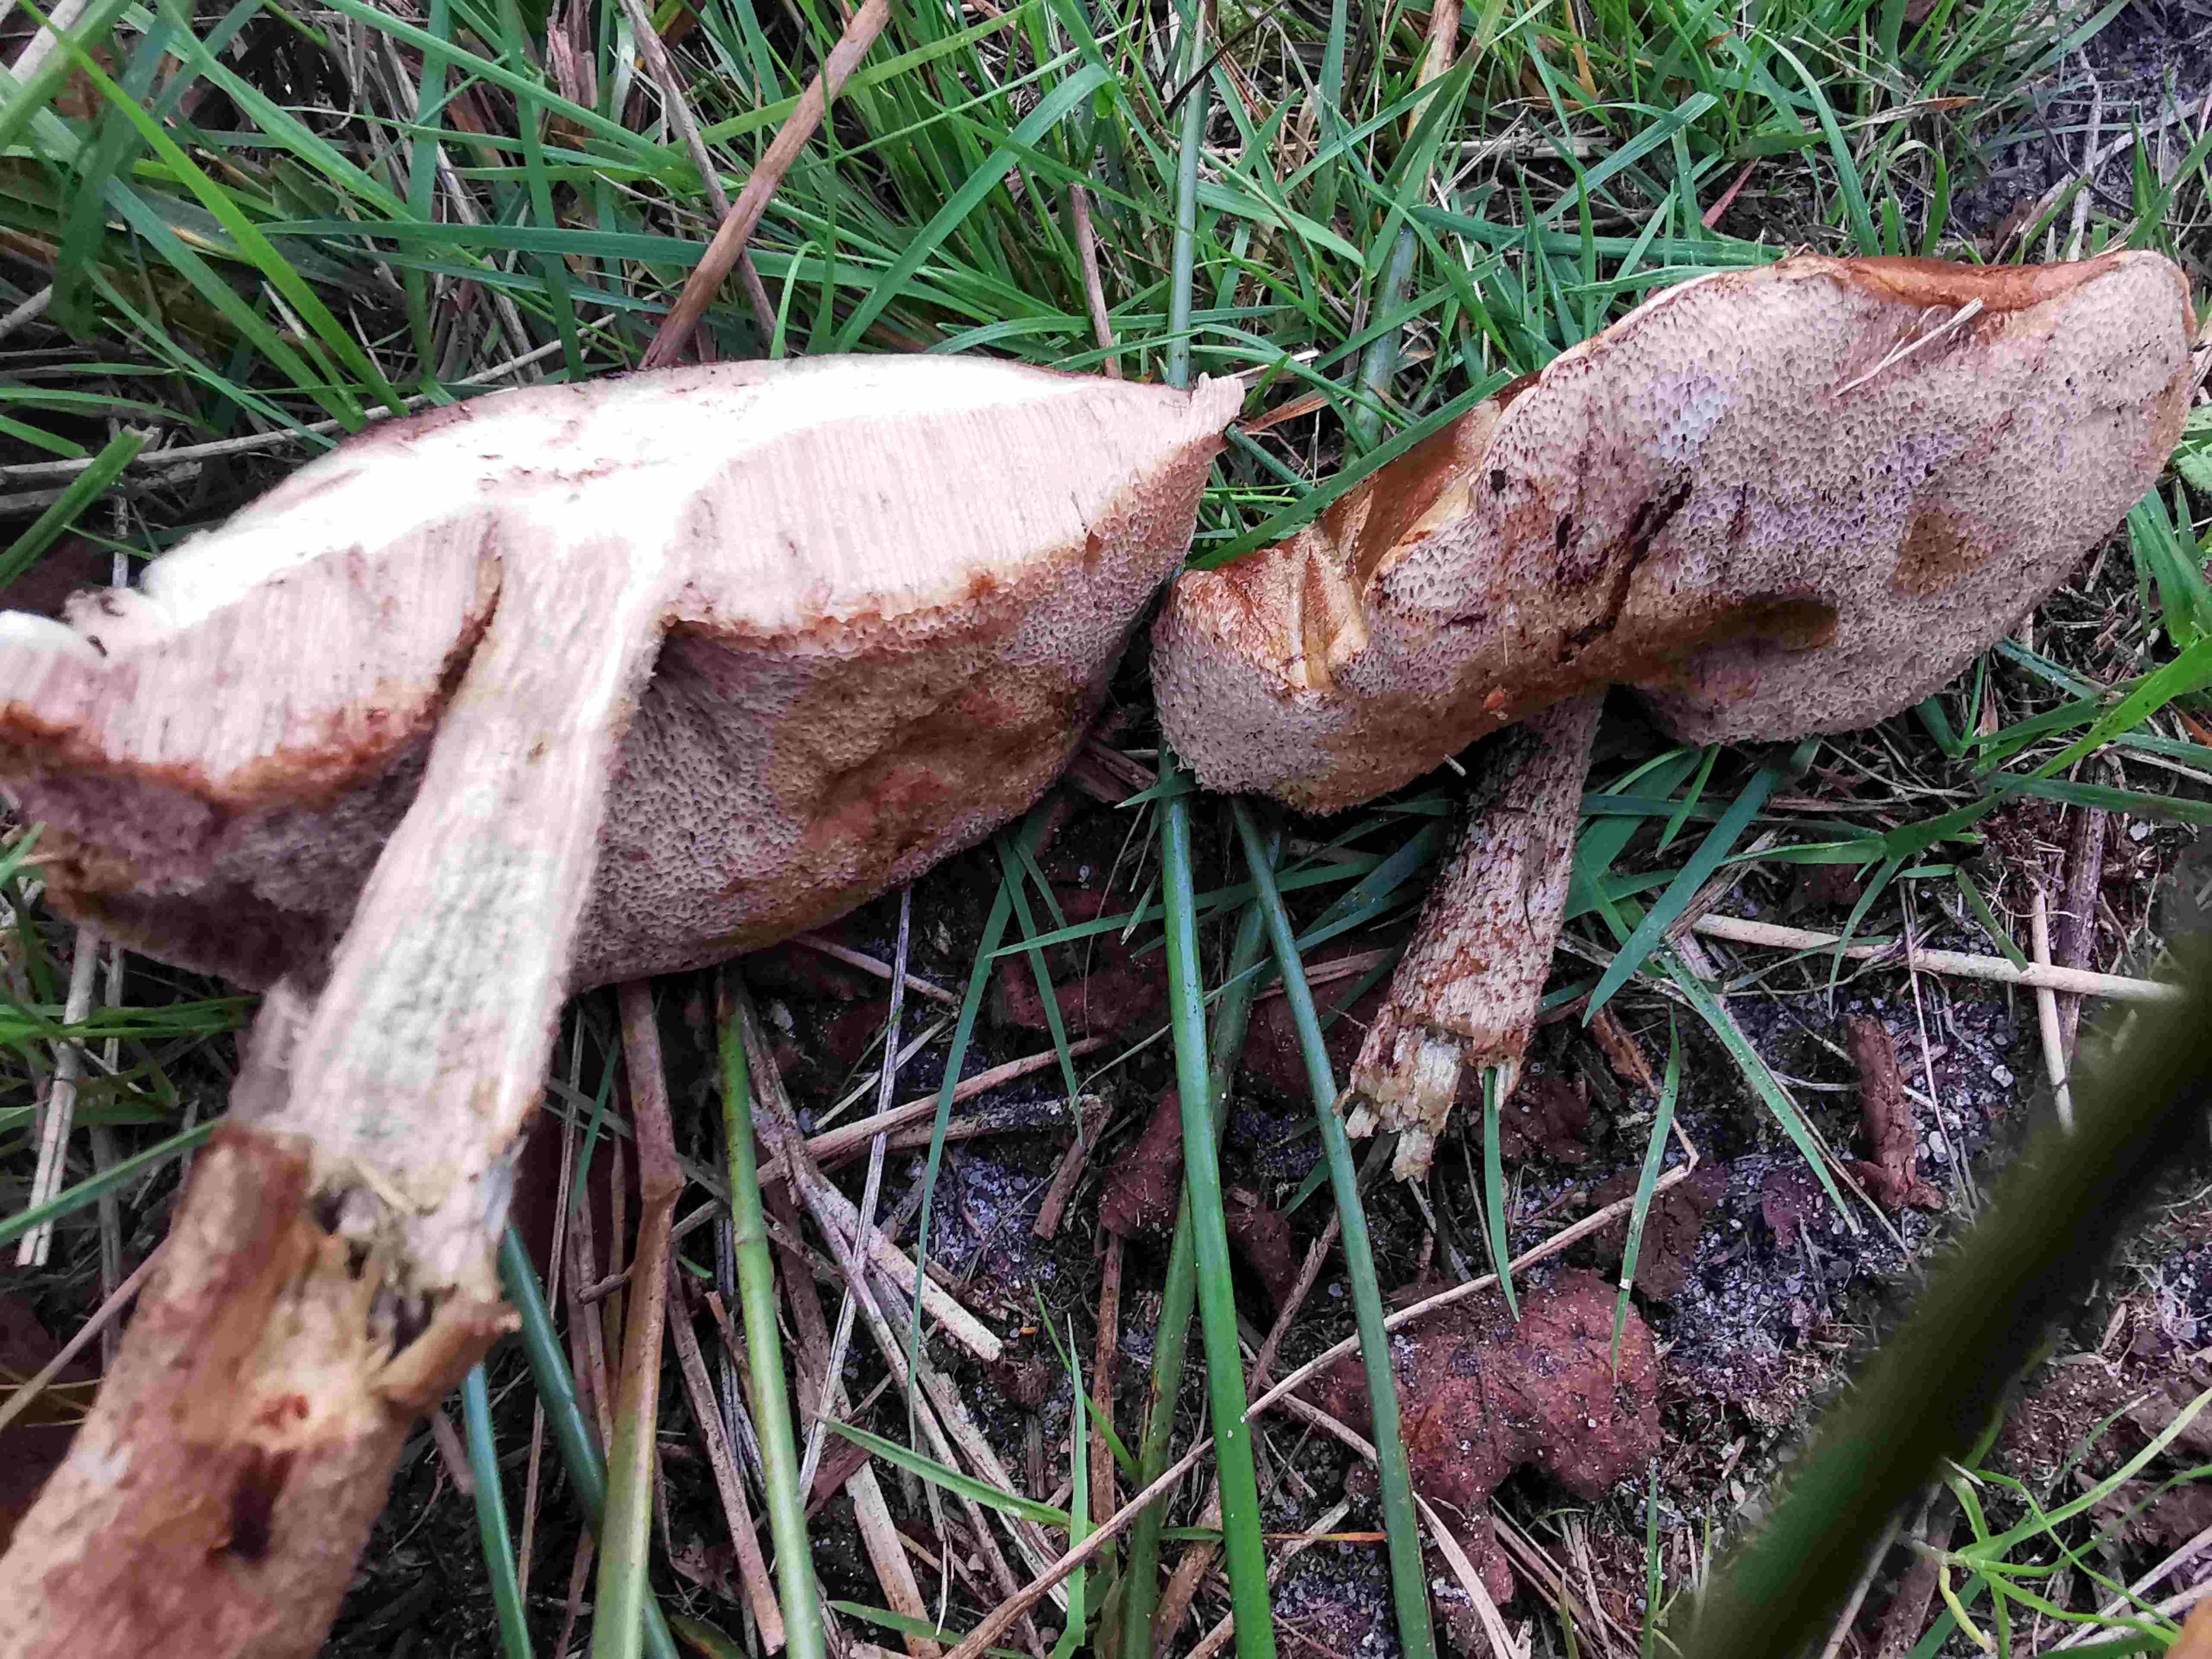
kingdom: Fungi
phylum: Basidiomycota
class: Agaricomycetes
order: Boletales
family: Boletaceae
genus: Leccinum
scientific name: Leccinum
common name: skælrørhat
